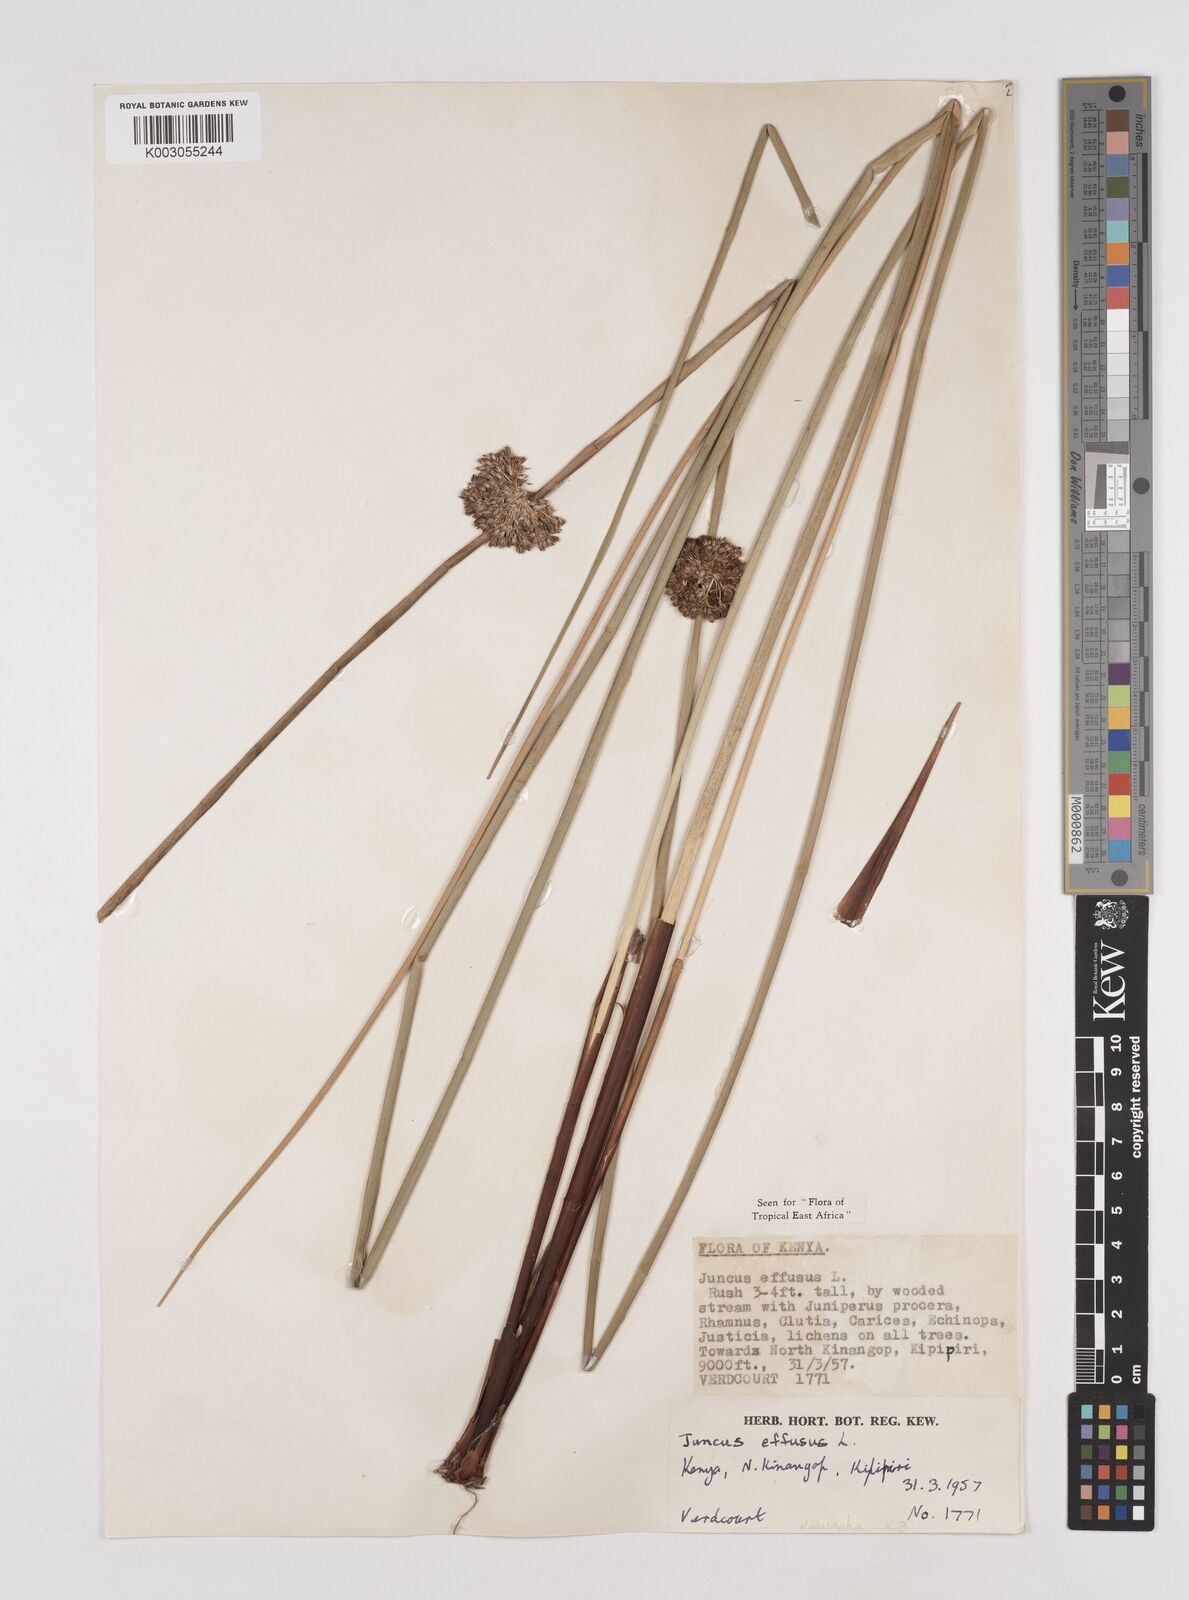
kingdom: Plantae
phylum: Tracheophyta
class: Liliopsida
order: Poales
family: Juncaceae
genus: Juncus
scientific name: Juncus effusus
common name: Soft rush
